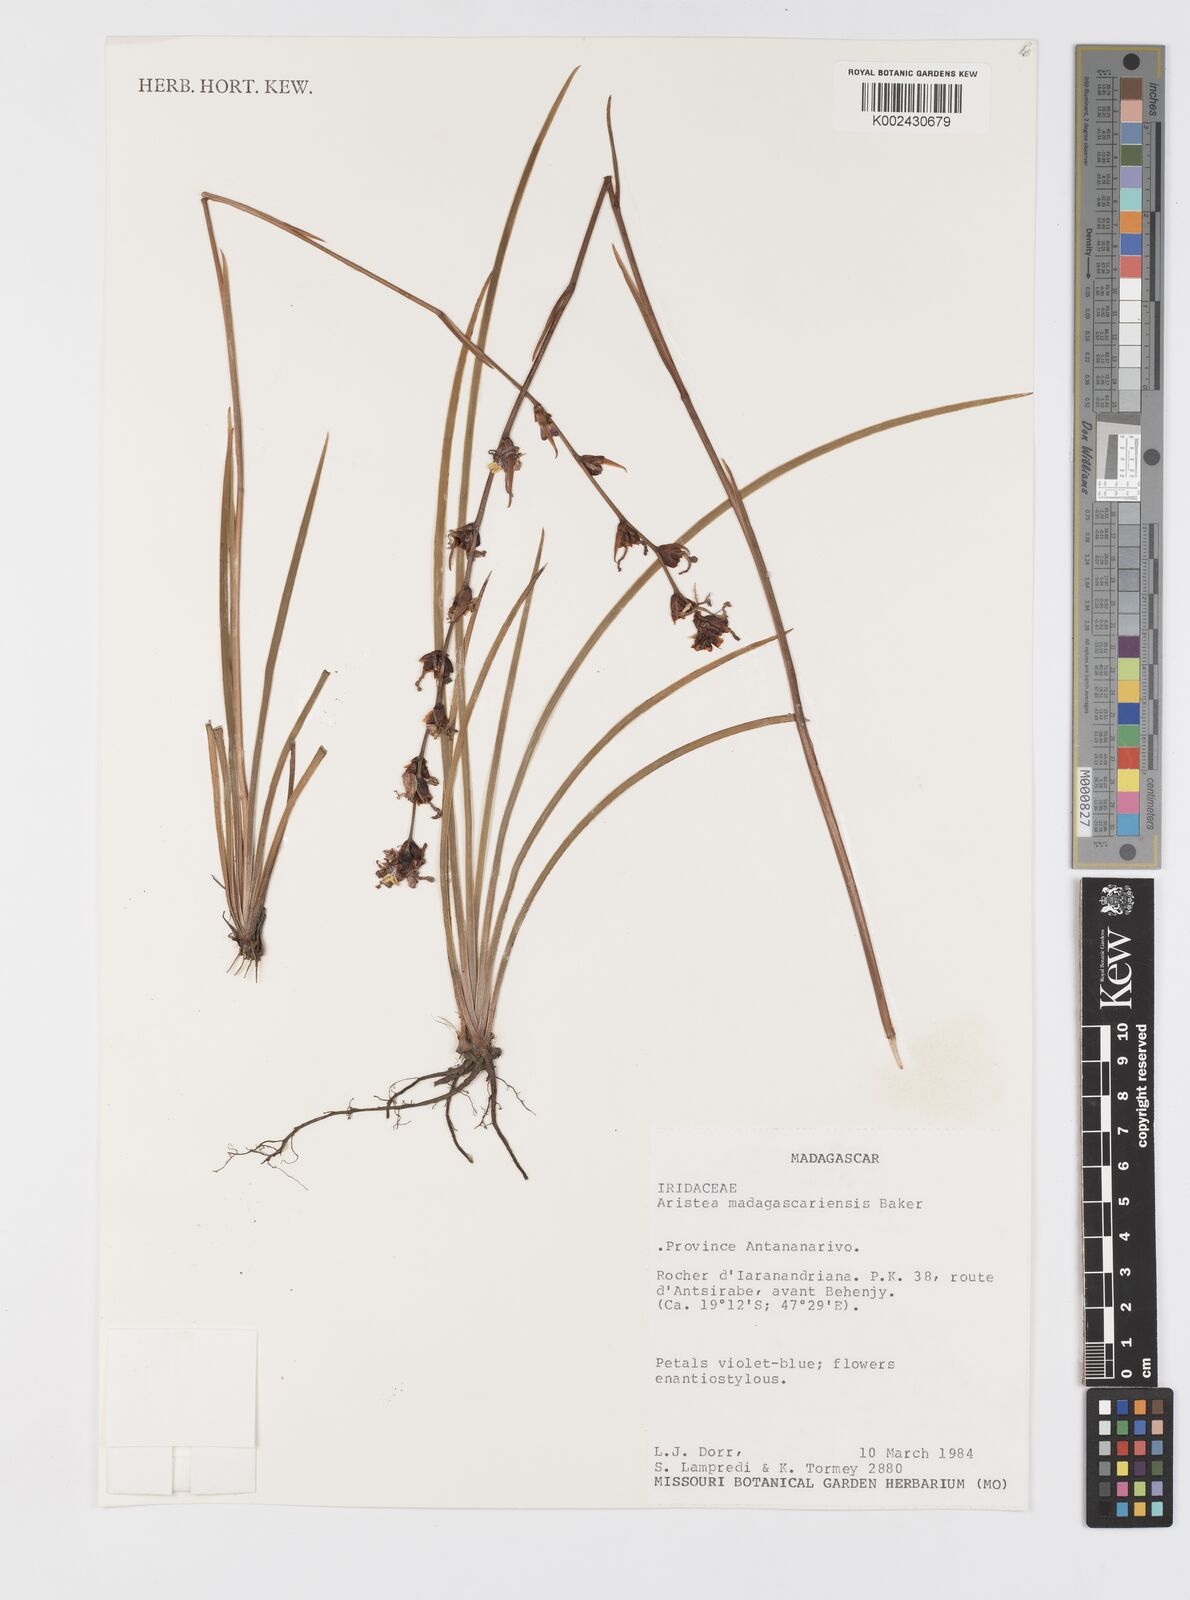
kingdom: Plantae
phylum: Tracheophyta
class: Liliopsida
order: Asparagales
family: Iridaceae
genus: Aristea
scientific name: Aristea madagascariensis
